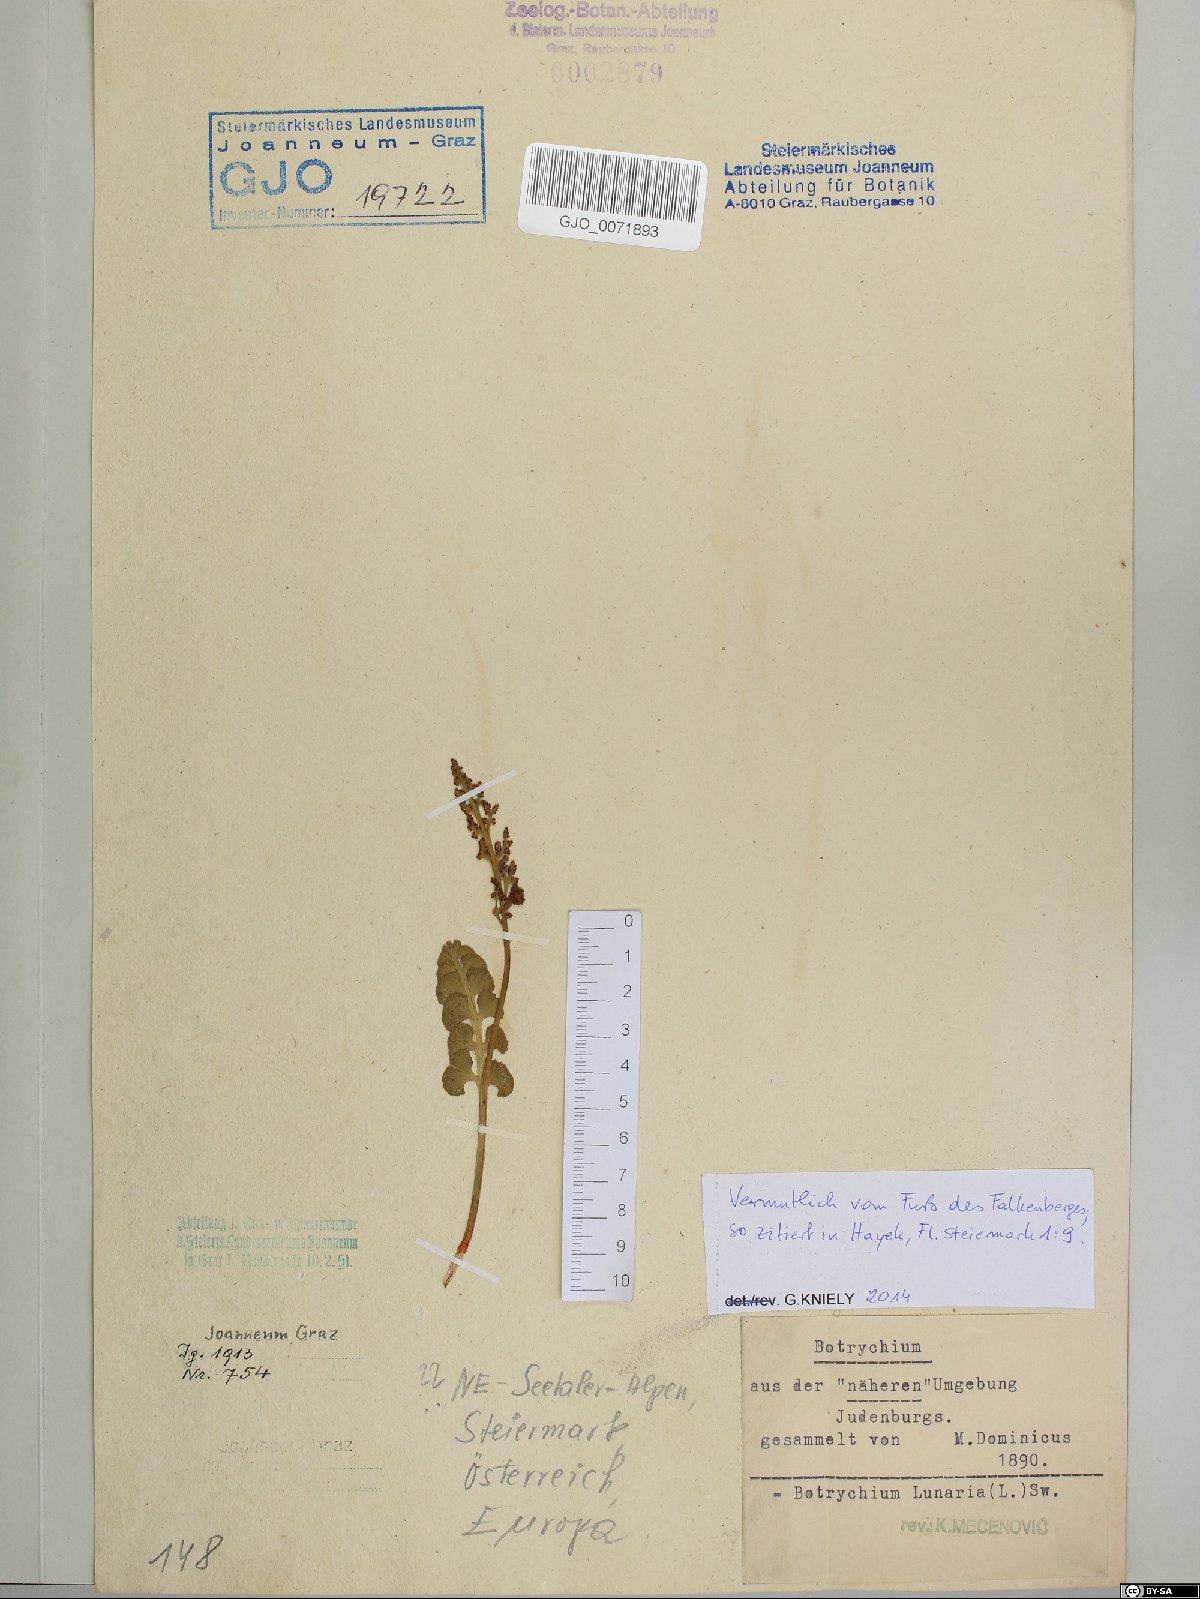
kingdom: Plantae
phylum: Tracheophyta
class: Polypodiopsida
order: Ophioglossales
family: Ophioglossaceae
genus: Botrychium
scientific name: Botrychium lunaria
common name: Moonwort
